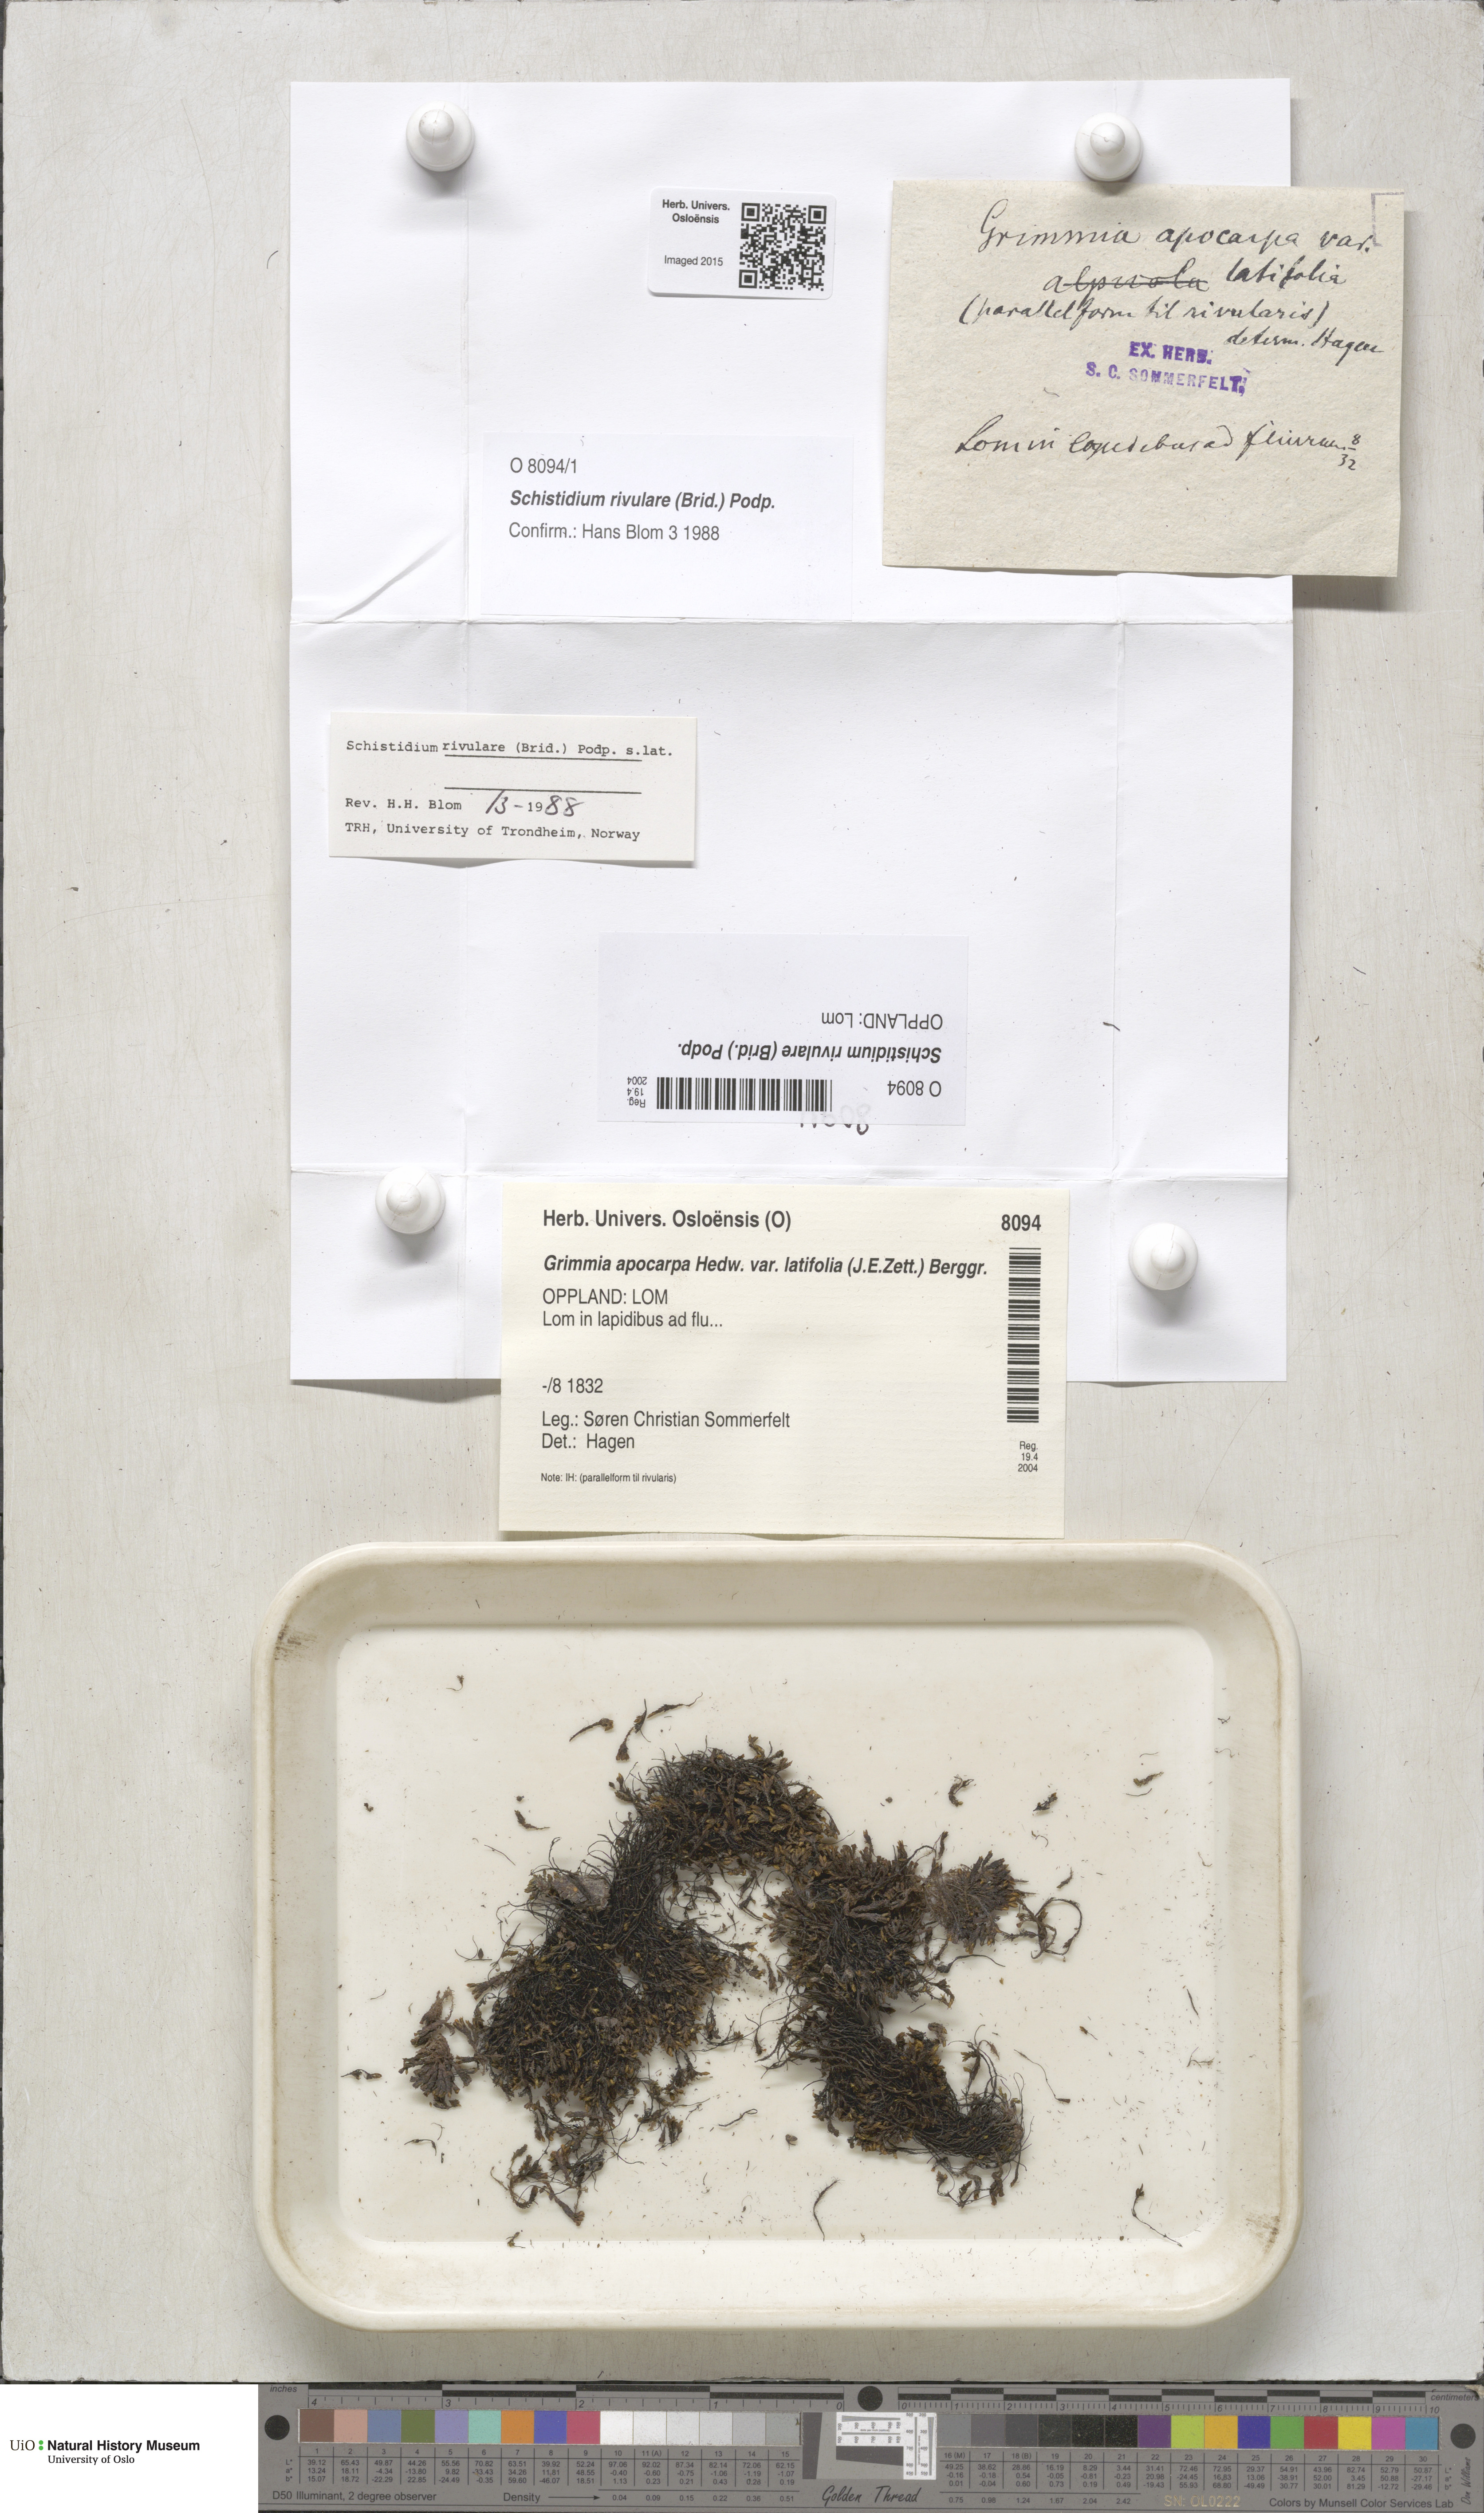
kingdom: Plantae
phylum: Bryophyta
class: Bryopsida
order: Grimmiales
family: Grimmiaceae
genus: Schistidium
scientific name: Schistidium rivulare
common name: River bloom moss
